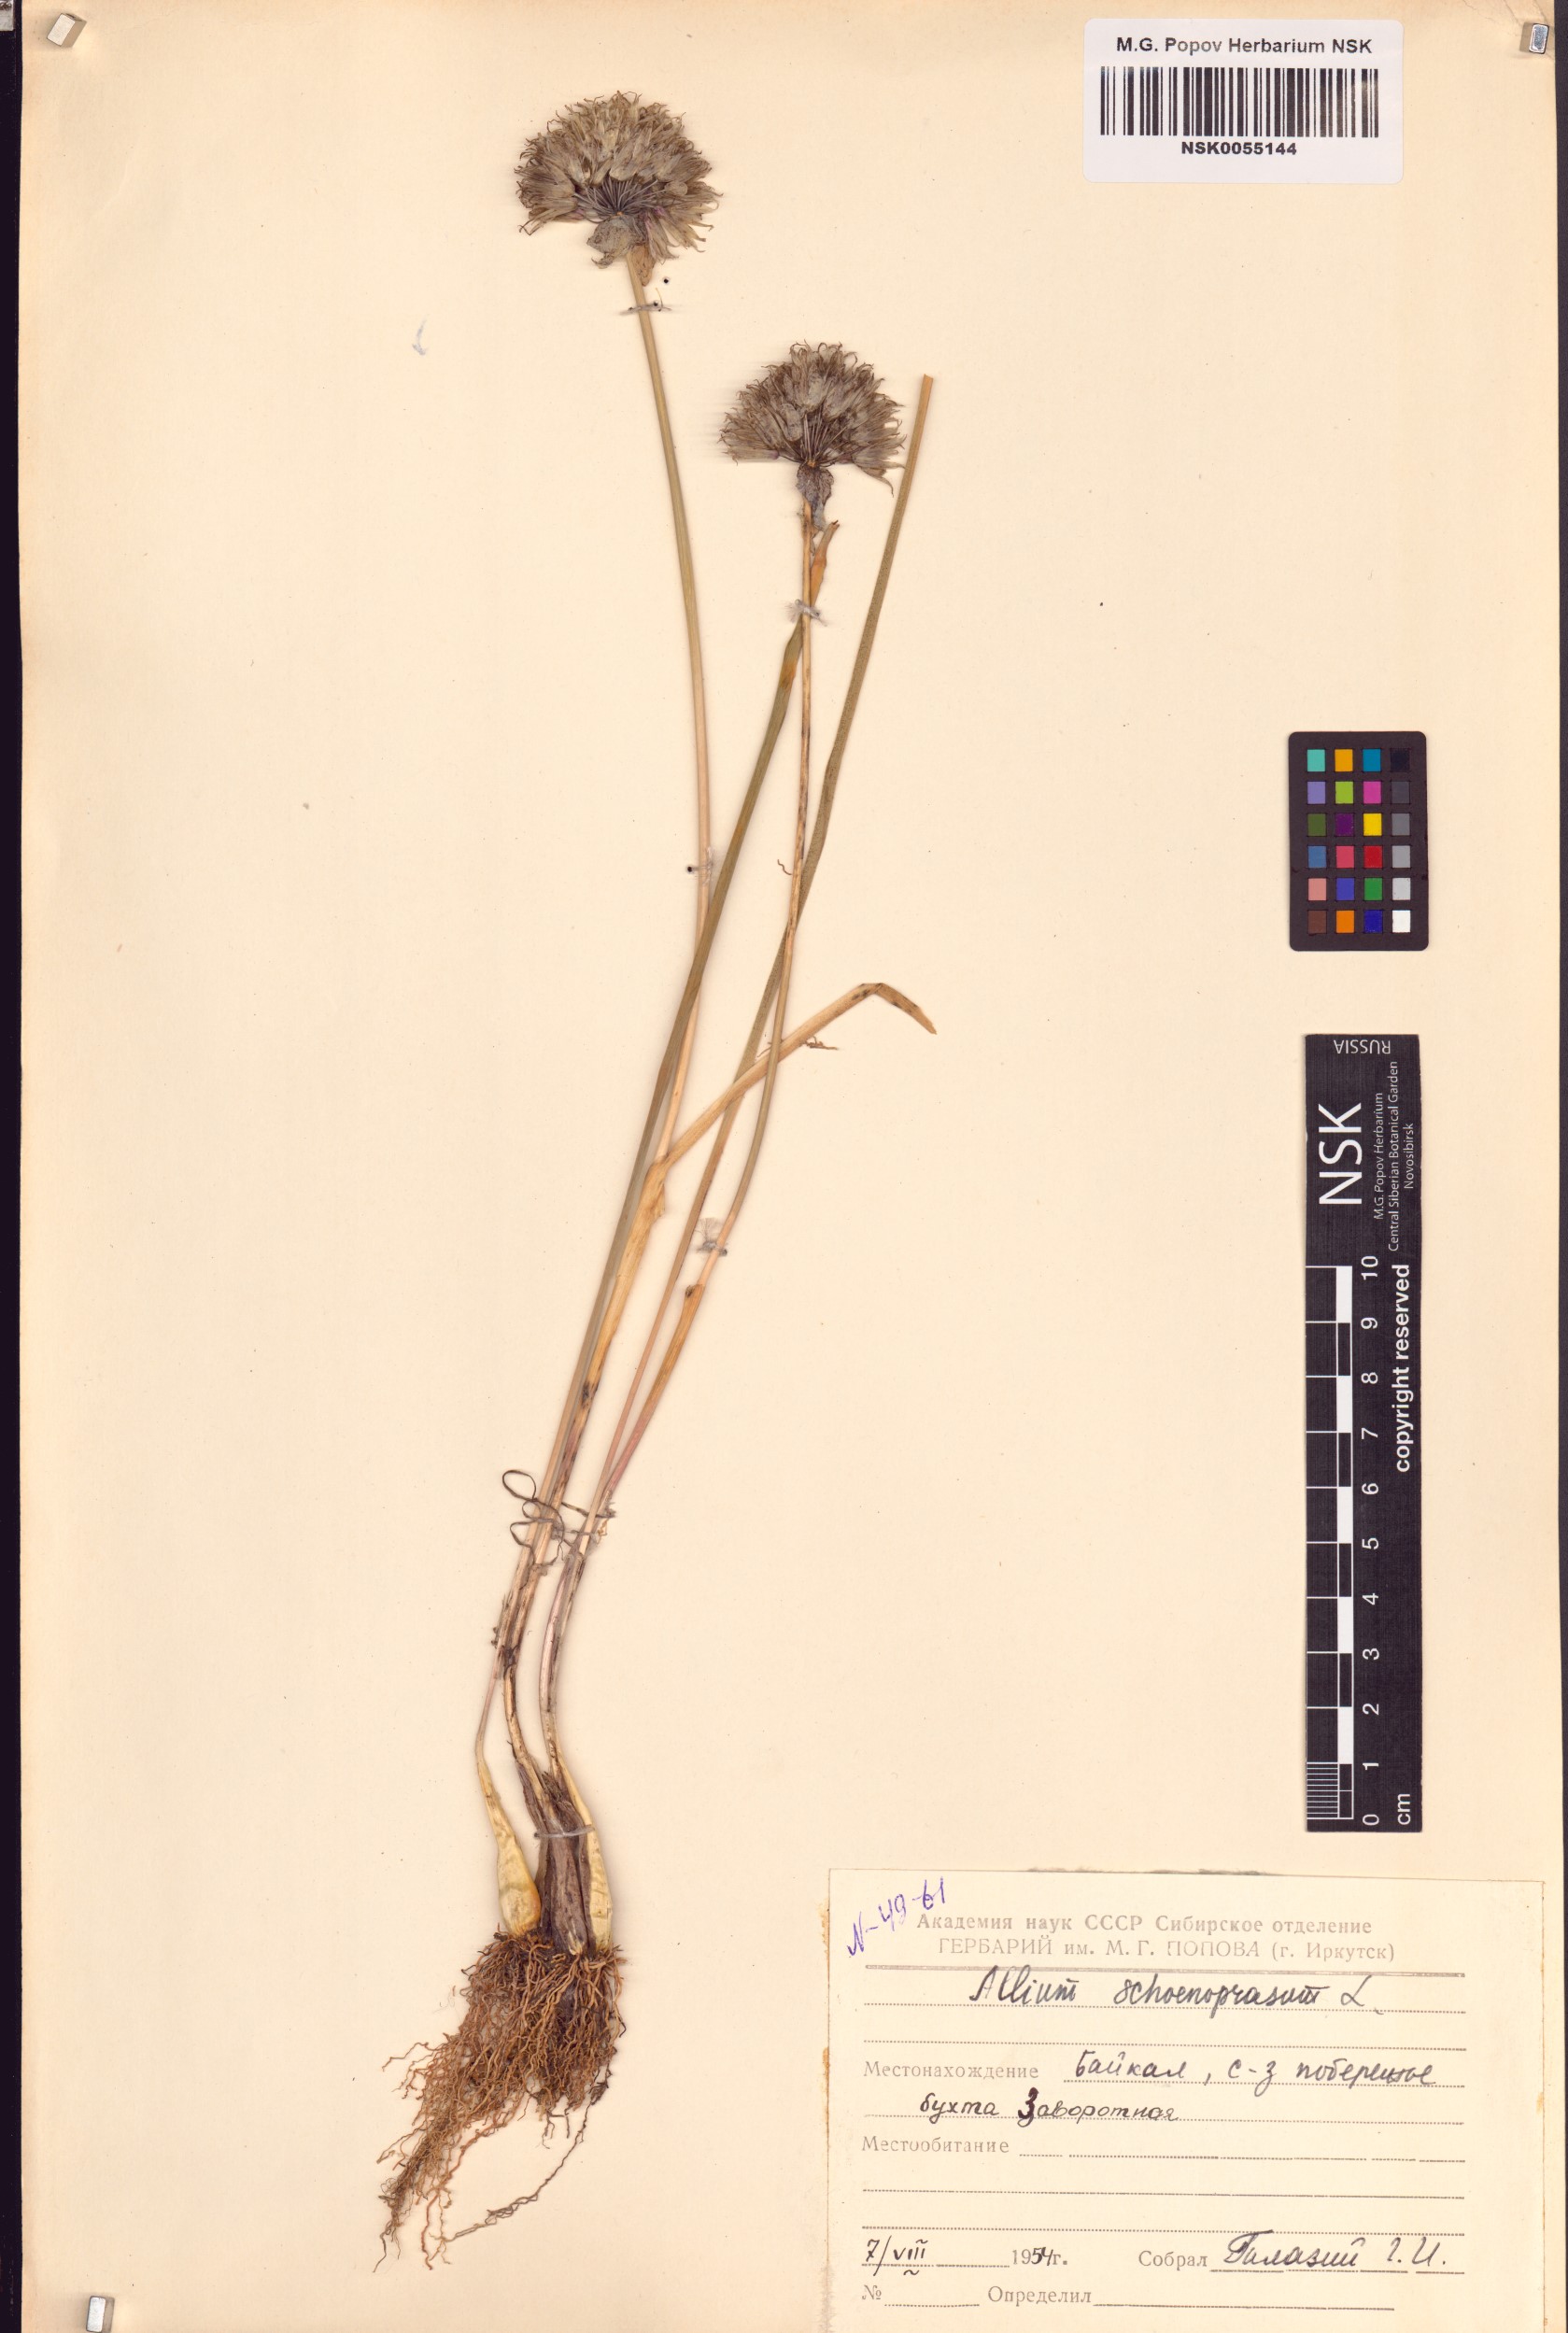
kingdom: Plantae
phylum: Tracheophyta
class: Liliopsida
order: Asparagales
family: Amaryllidaceae
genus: Allium
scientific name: Allium schoenoprasum
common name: Chives
